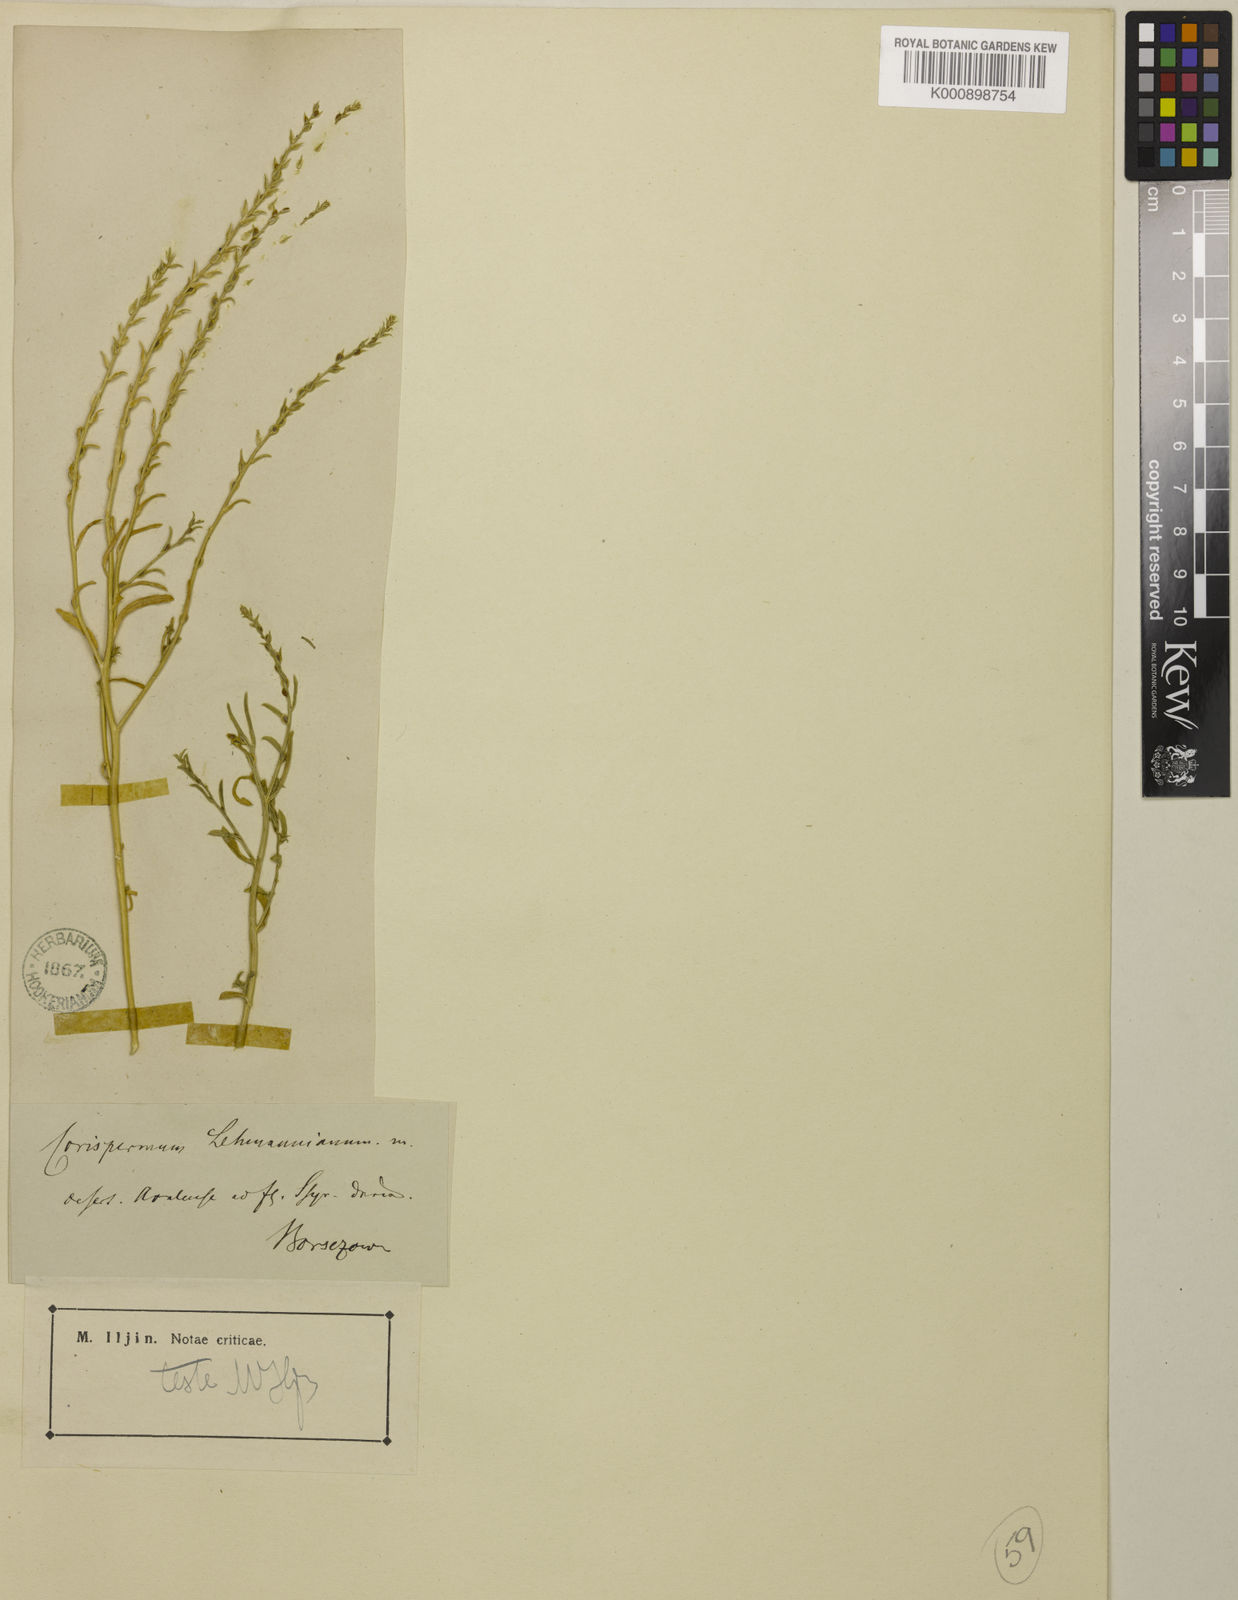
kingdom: Plantae
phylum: Tracheophyta
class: Magnoliopsida
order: Caryophyllales
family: Amaranthaceae
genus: Corispermum
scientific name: Corispermum lehmannianum
